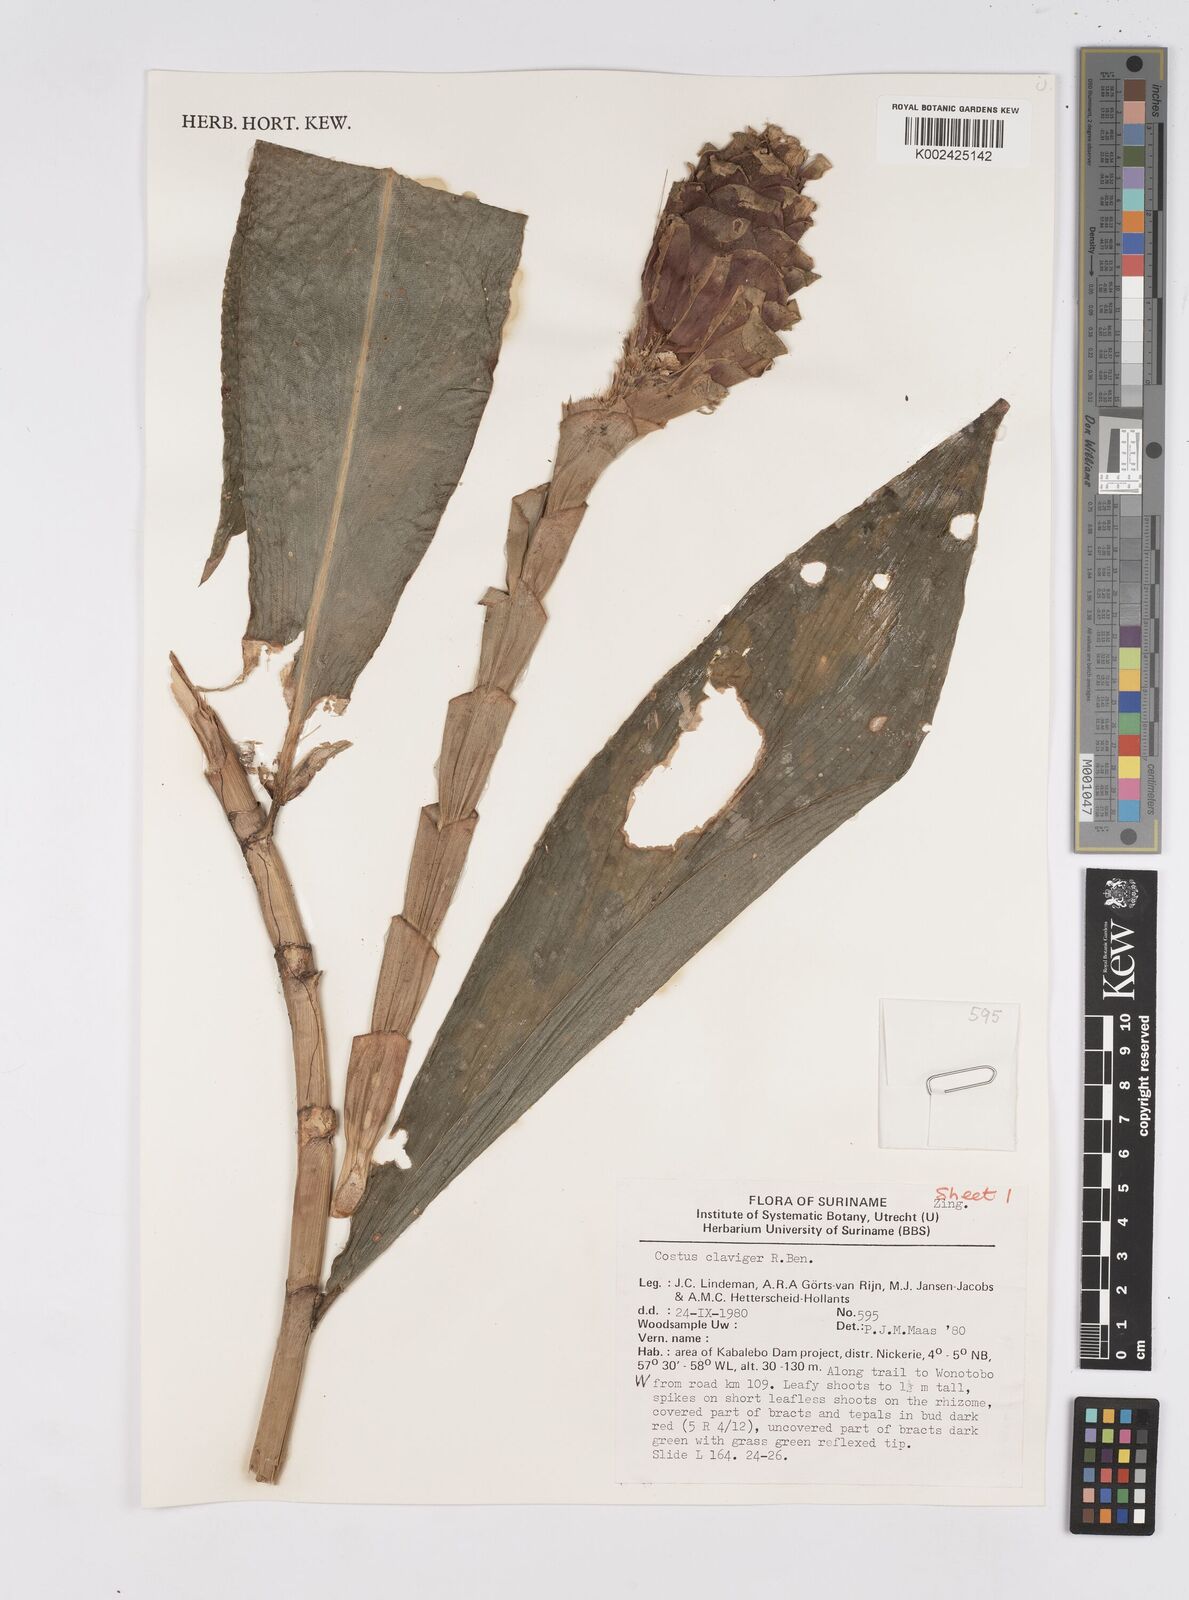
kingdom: Plantae
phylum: Tracheophyta
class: Liliopsida
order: Zingiberales
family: Costaceae
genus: Costus
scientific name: Costus claviger
